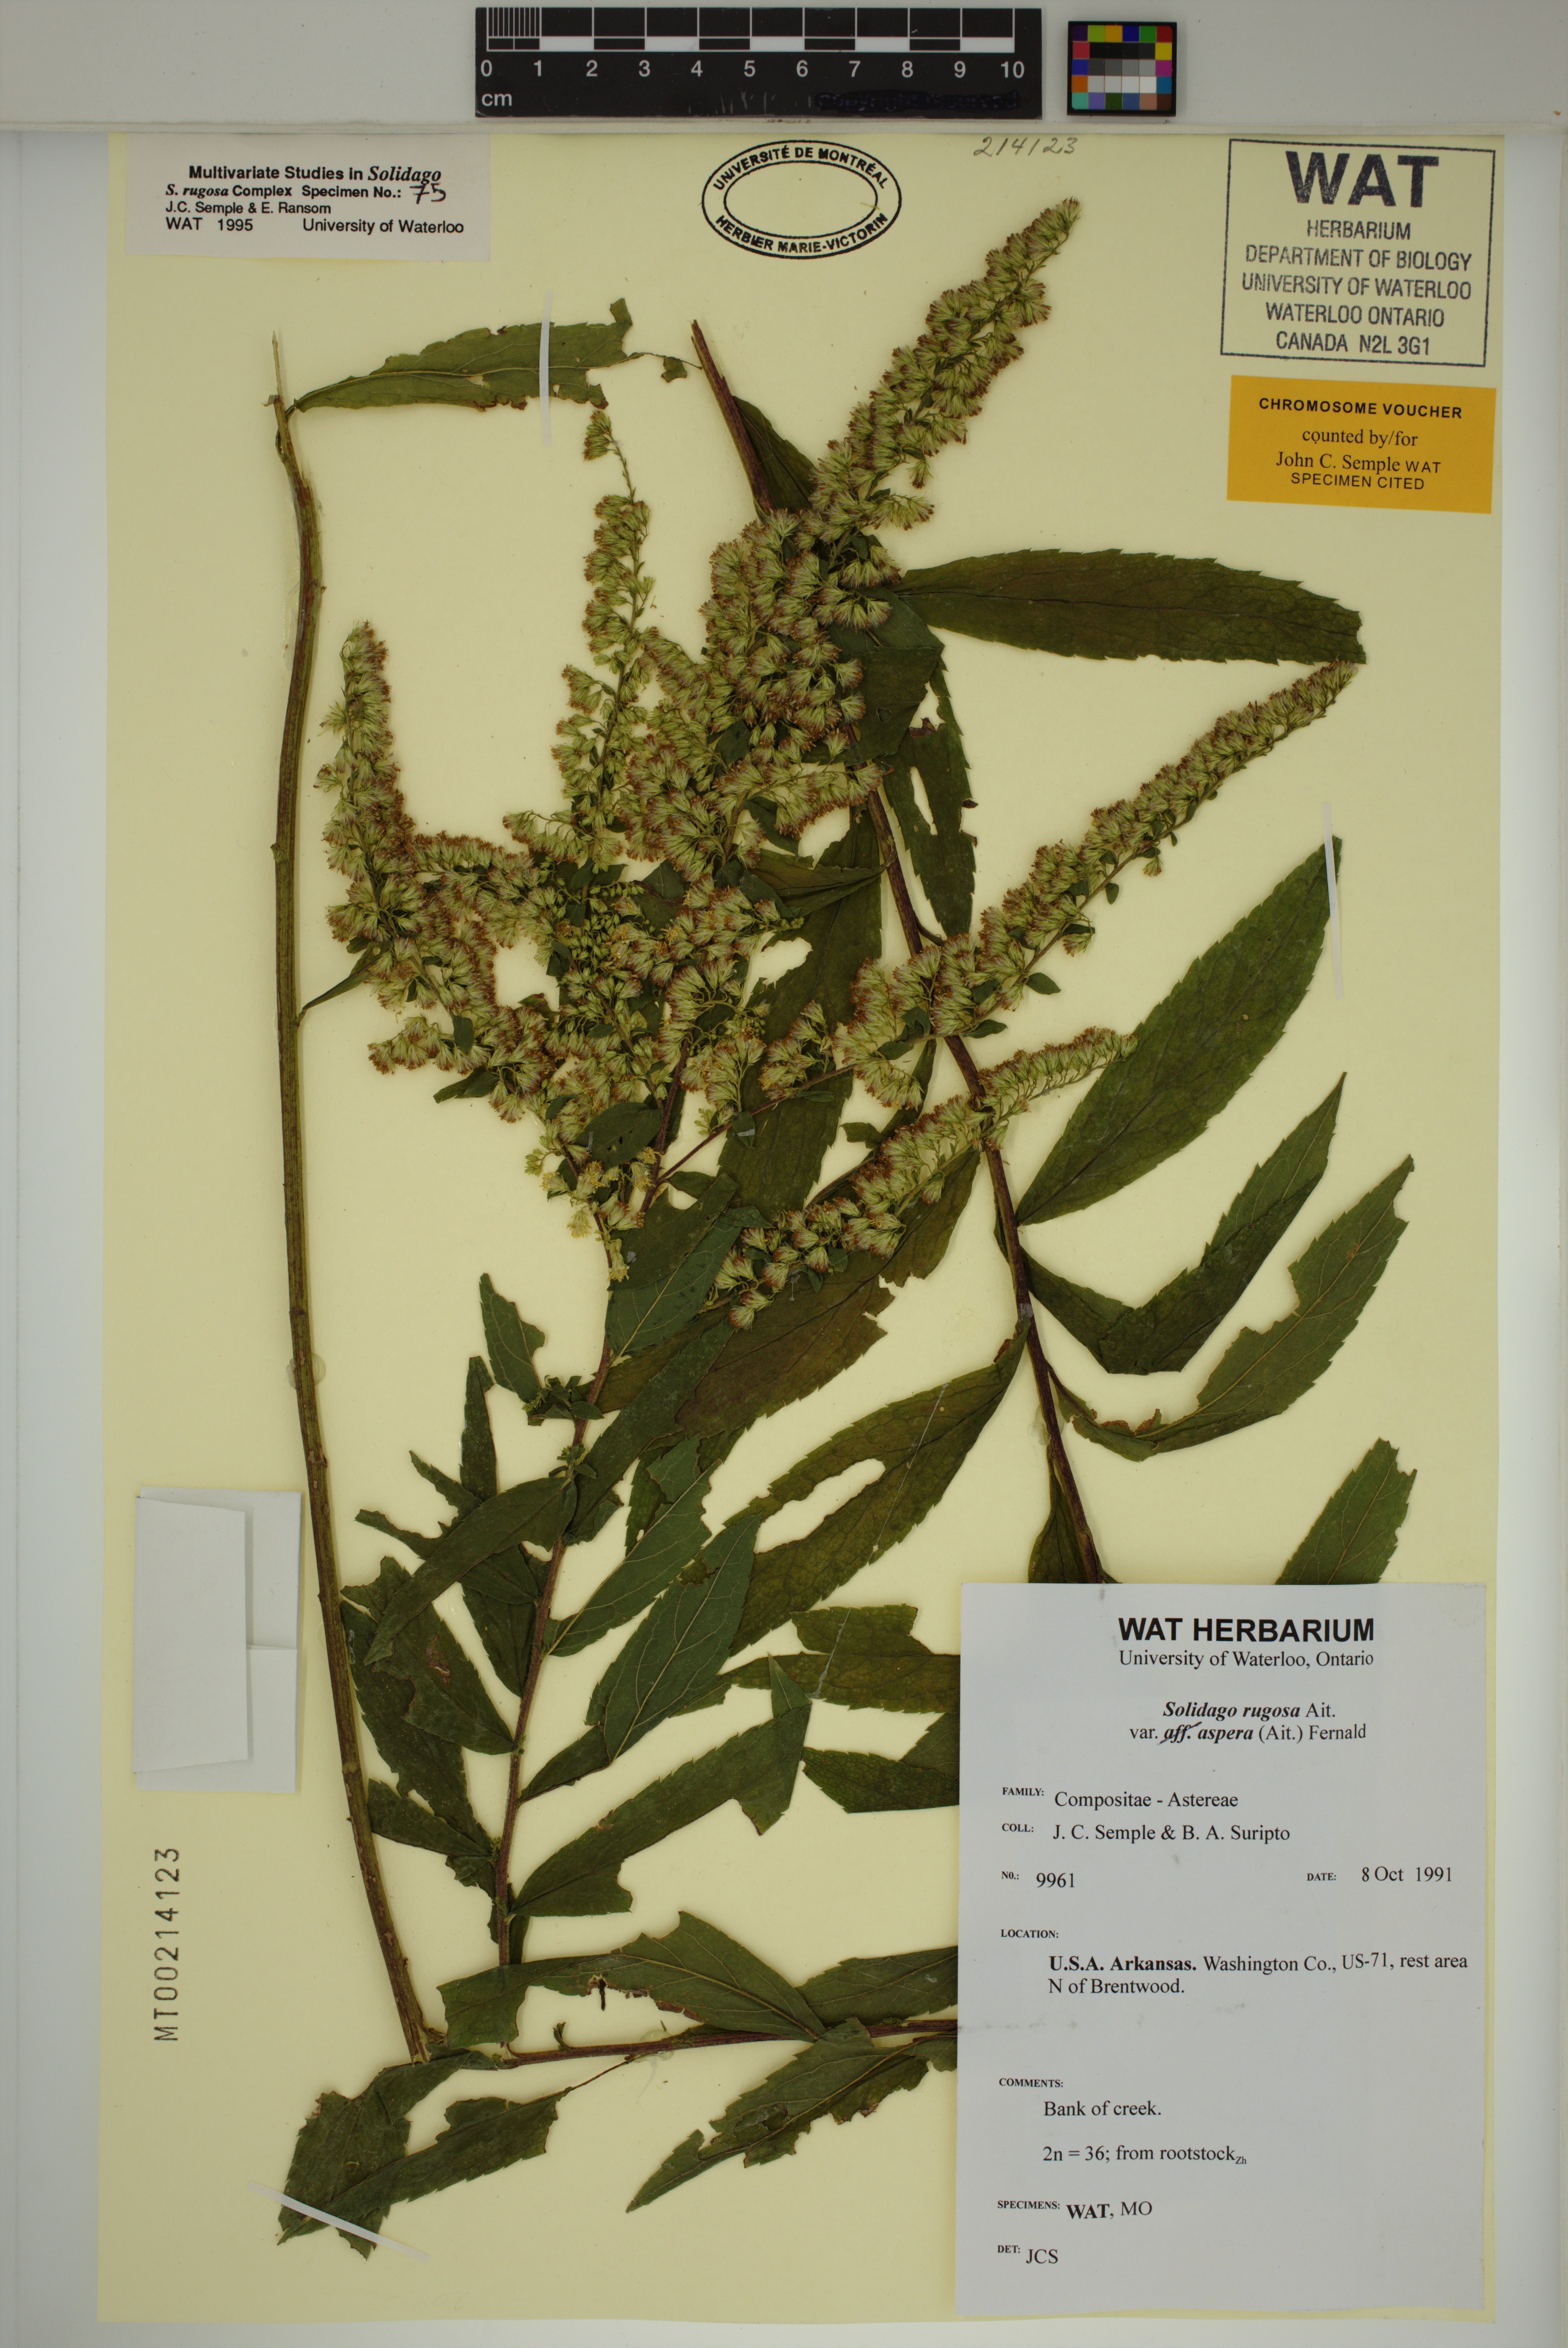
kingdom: Plantae
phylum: Tracheophyta
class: Magnoliopsida
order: Asterales
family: Asteraceae
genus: Solidago
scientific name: Solidago rugosa
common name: Rough-stemmed goldenrod
